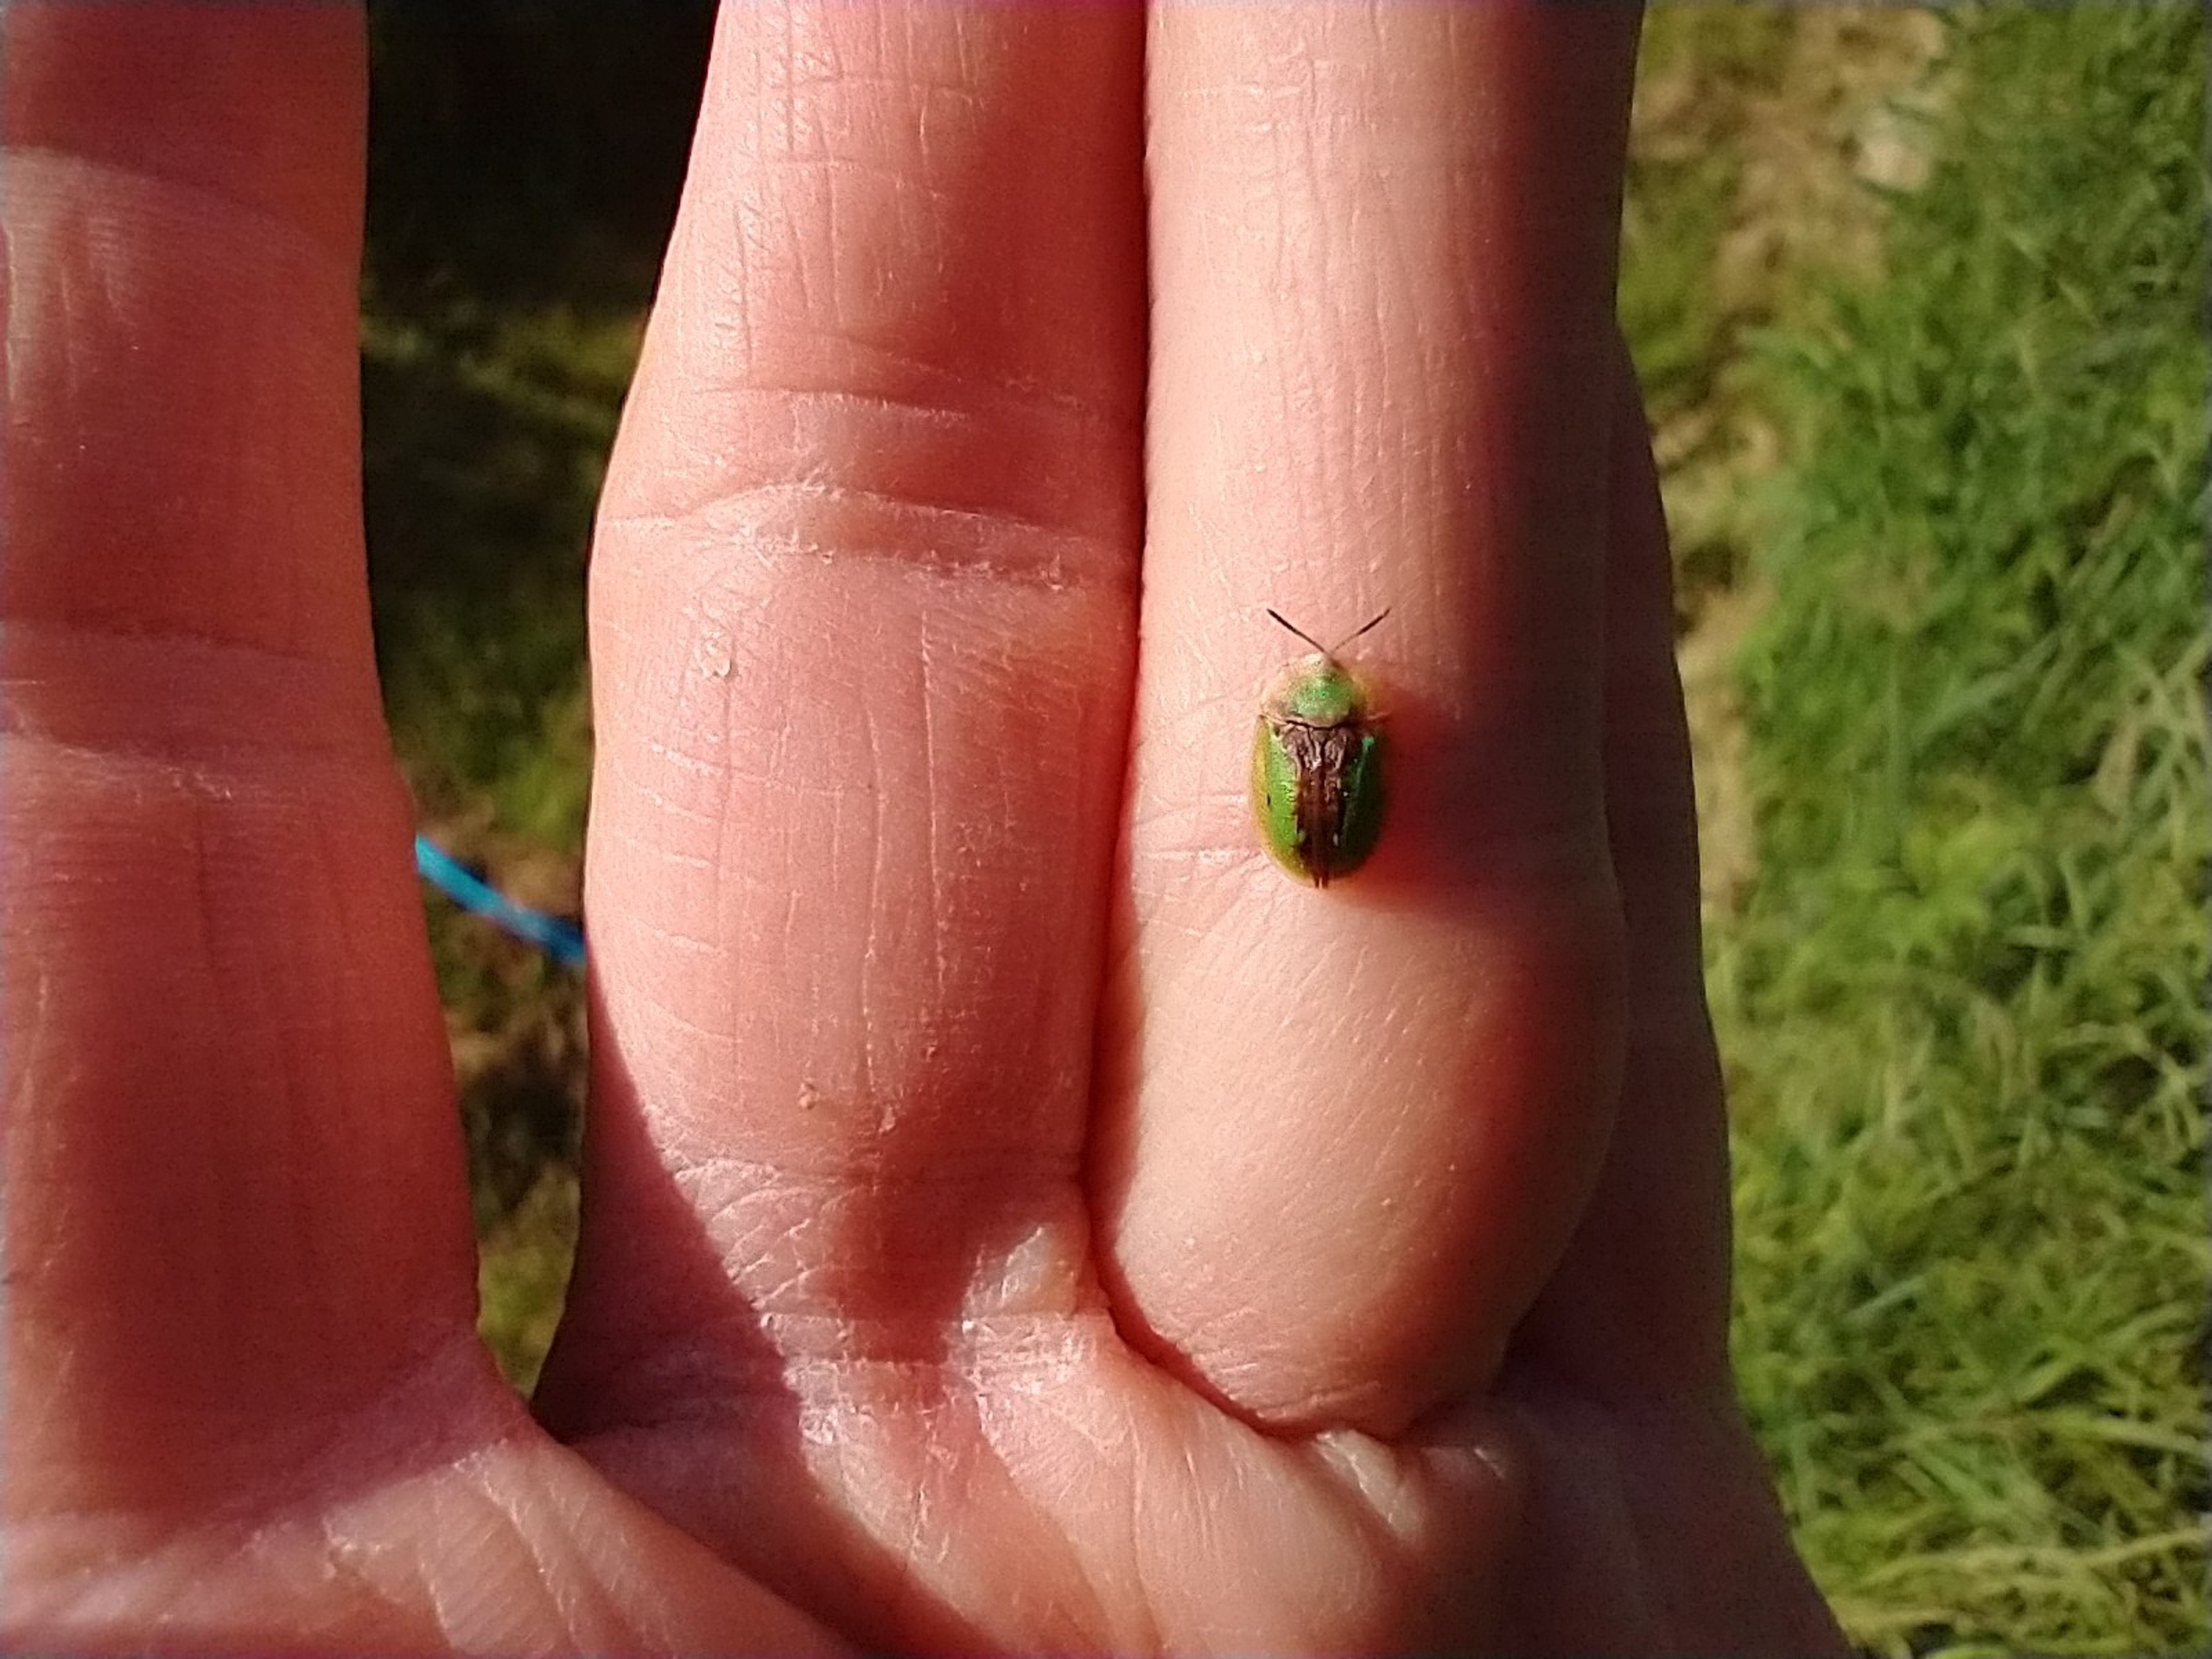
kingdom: Animalia
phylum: Arthropoda
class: Insecta
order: Coleoptera
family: Chrysomelidae
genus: Cassida
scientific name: Cassida vibex
